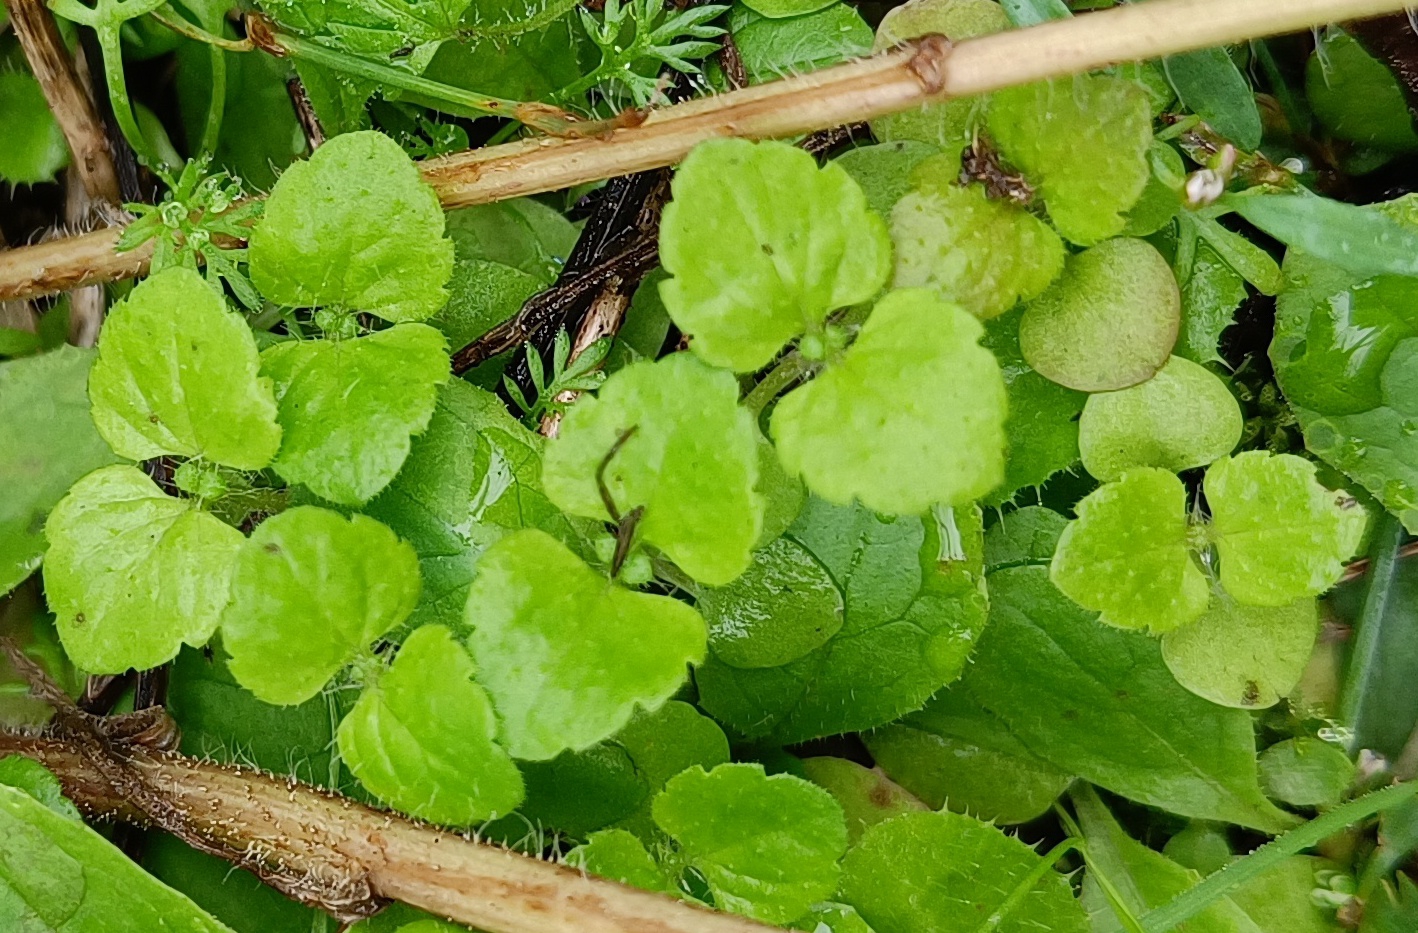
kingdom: Plantae
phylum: Tracheophyta
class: Magnoliopsida
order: Lamiales
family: Plantaginaceae
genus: Veronica
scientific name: Veronica
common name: Ærenprisslægten
